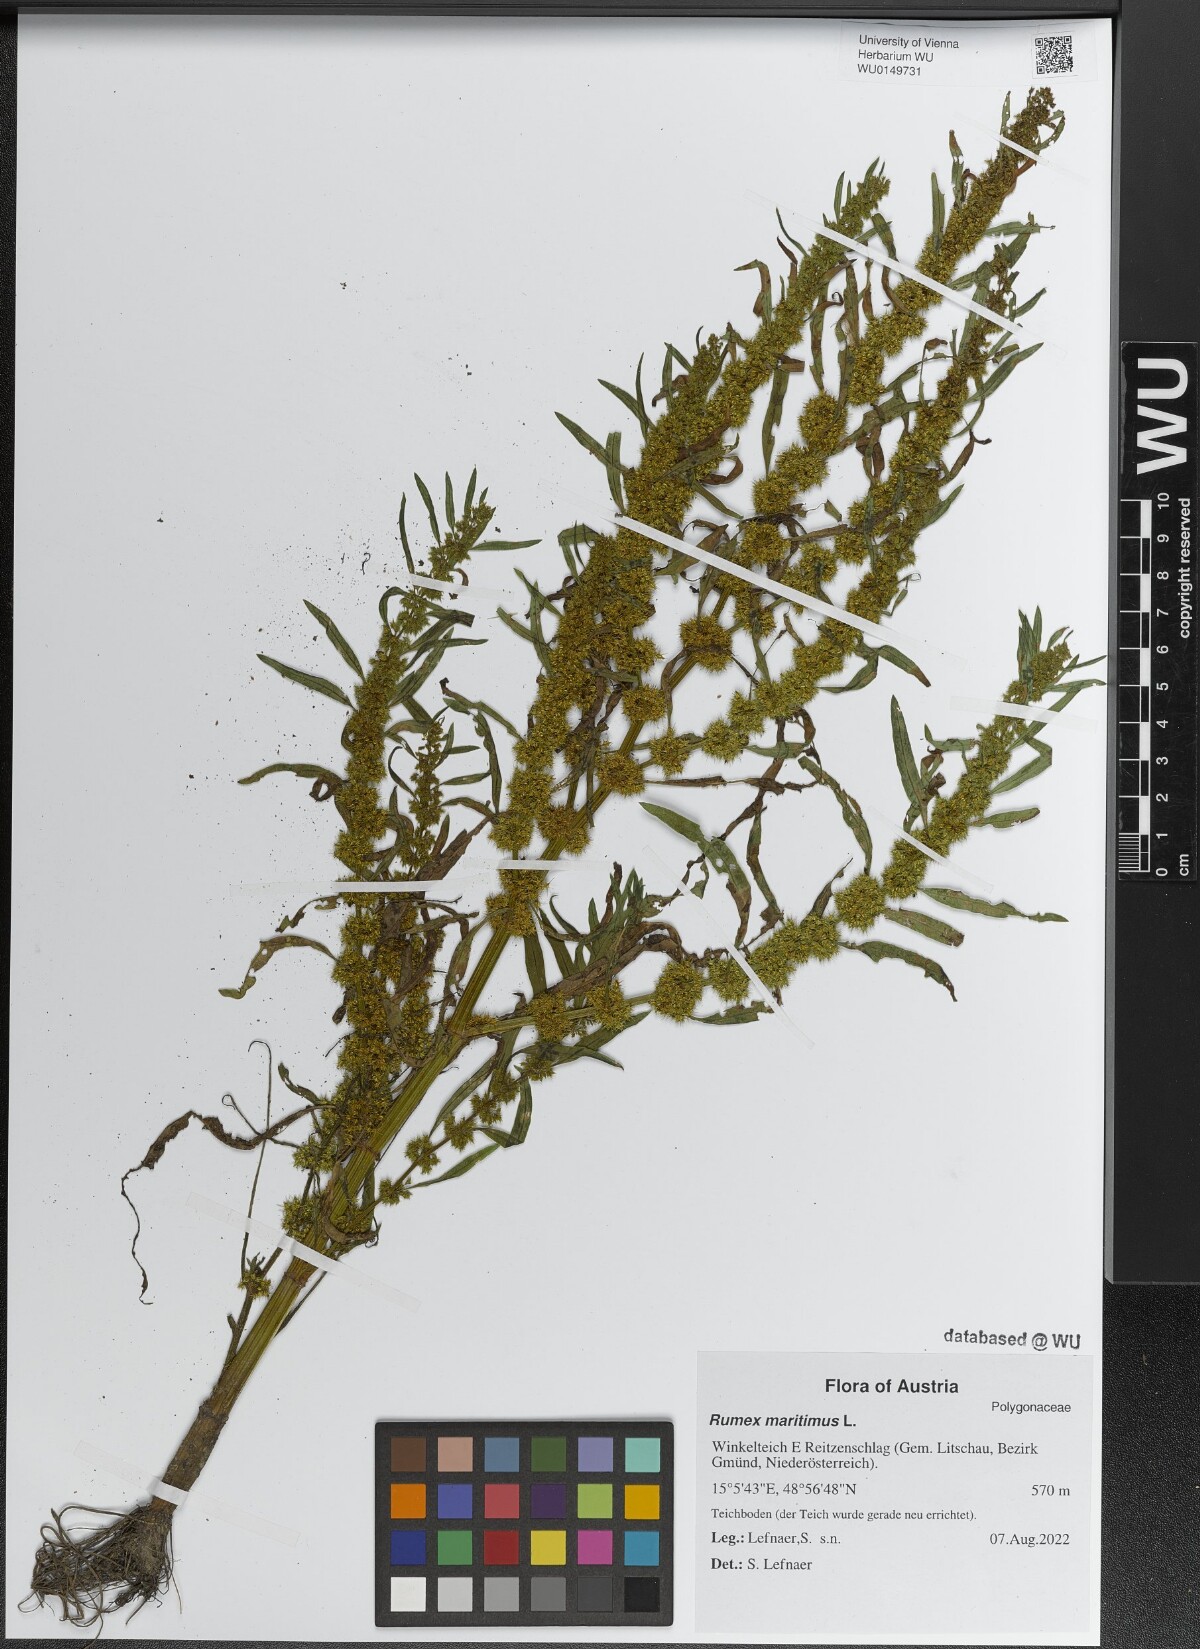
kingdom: Plantae
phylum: Tracheophyta
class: Magnoliopsida
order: Caryophyllales
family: Polygonaceae
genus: Rumex
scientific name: Rumex maritimus
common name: Golden dock
